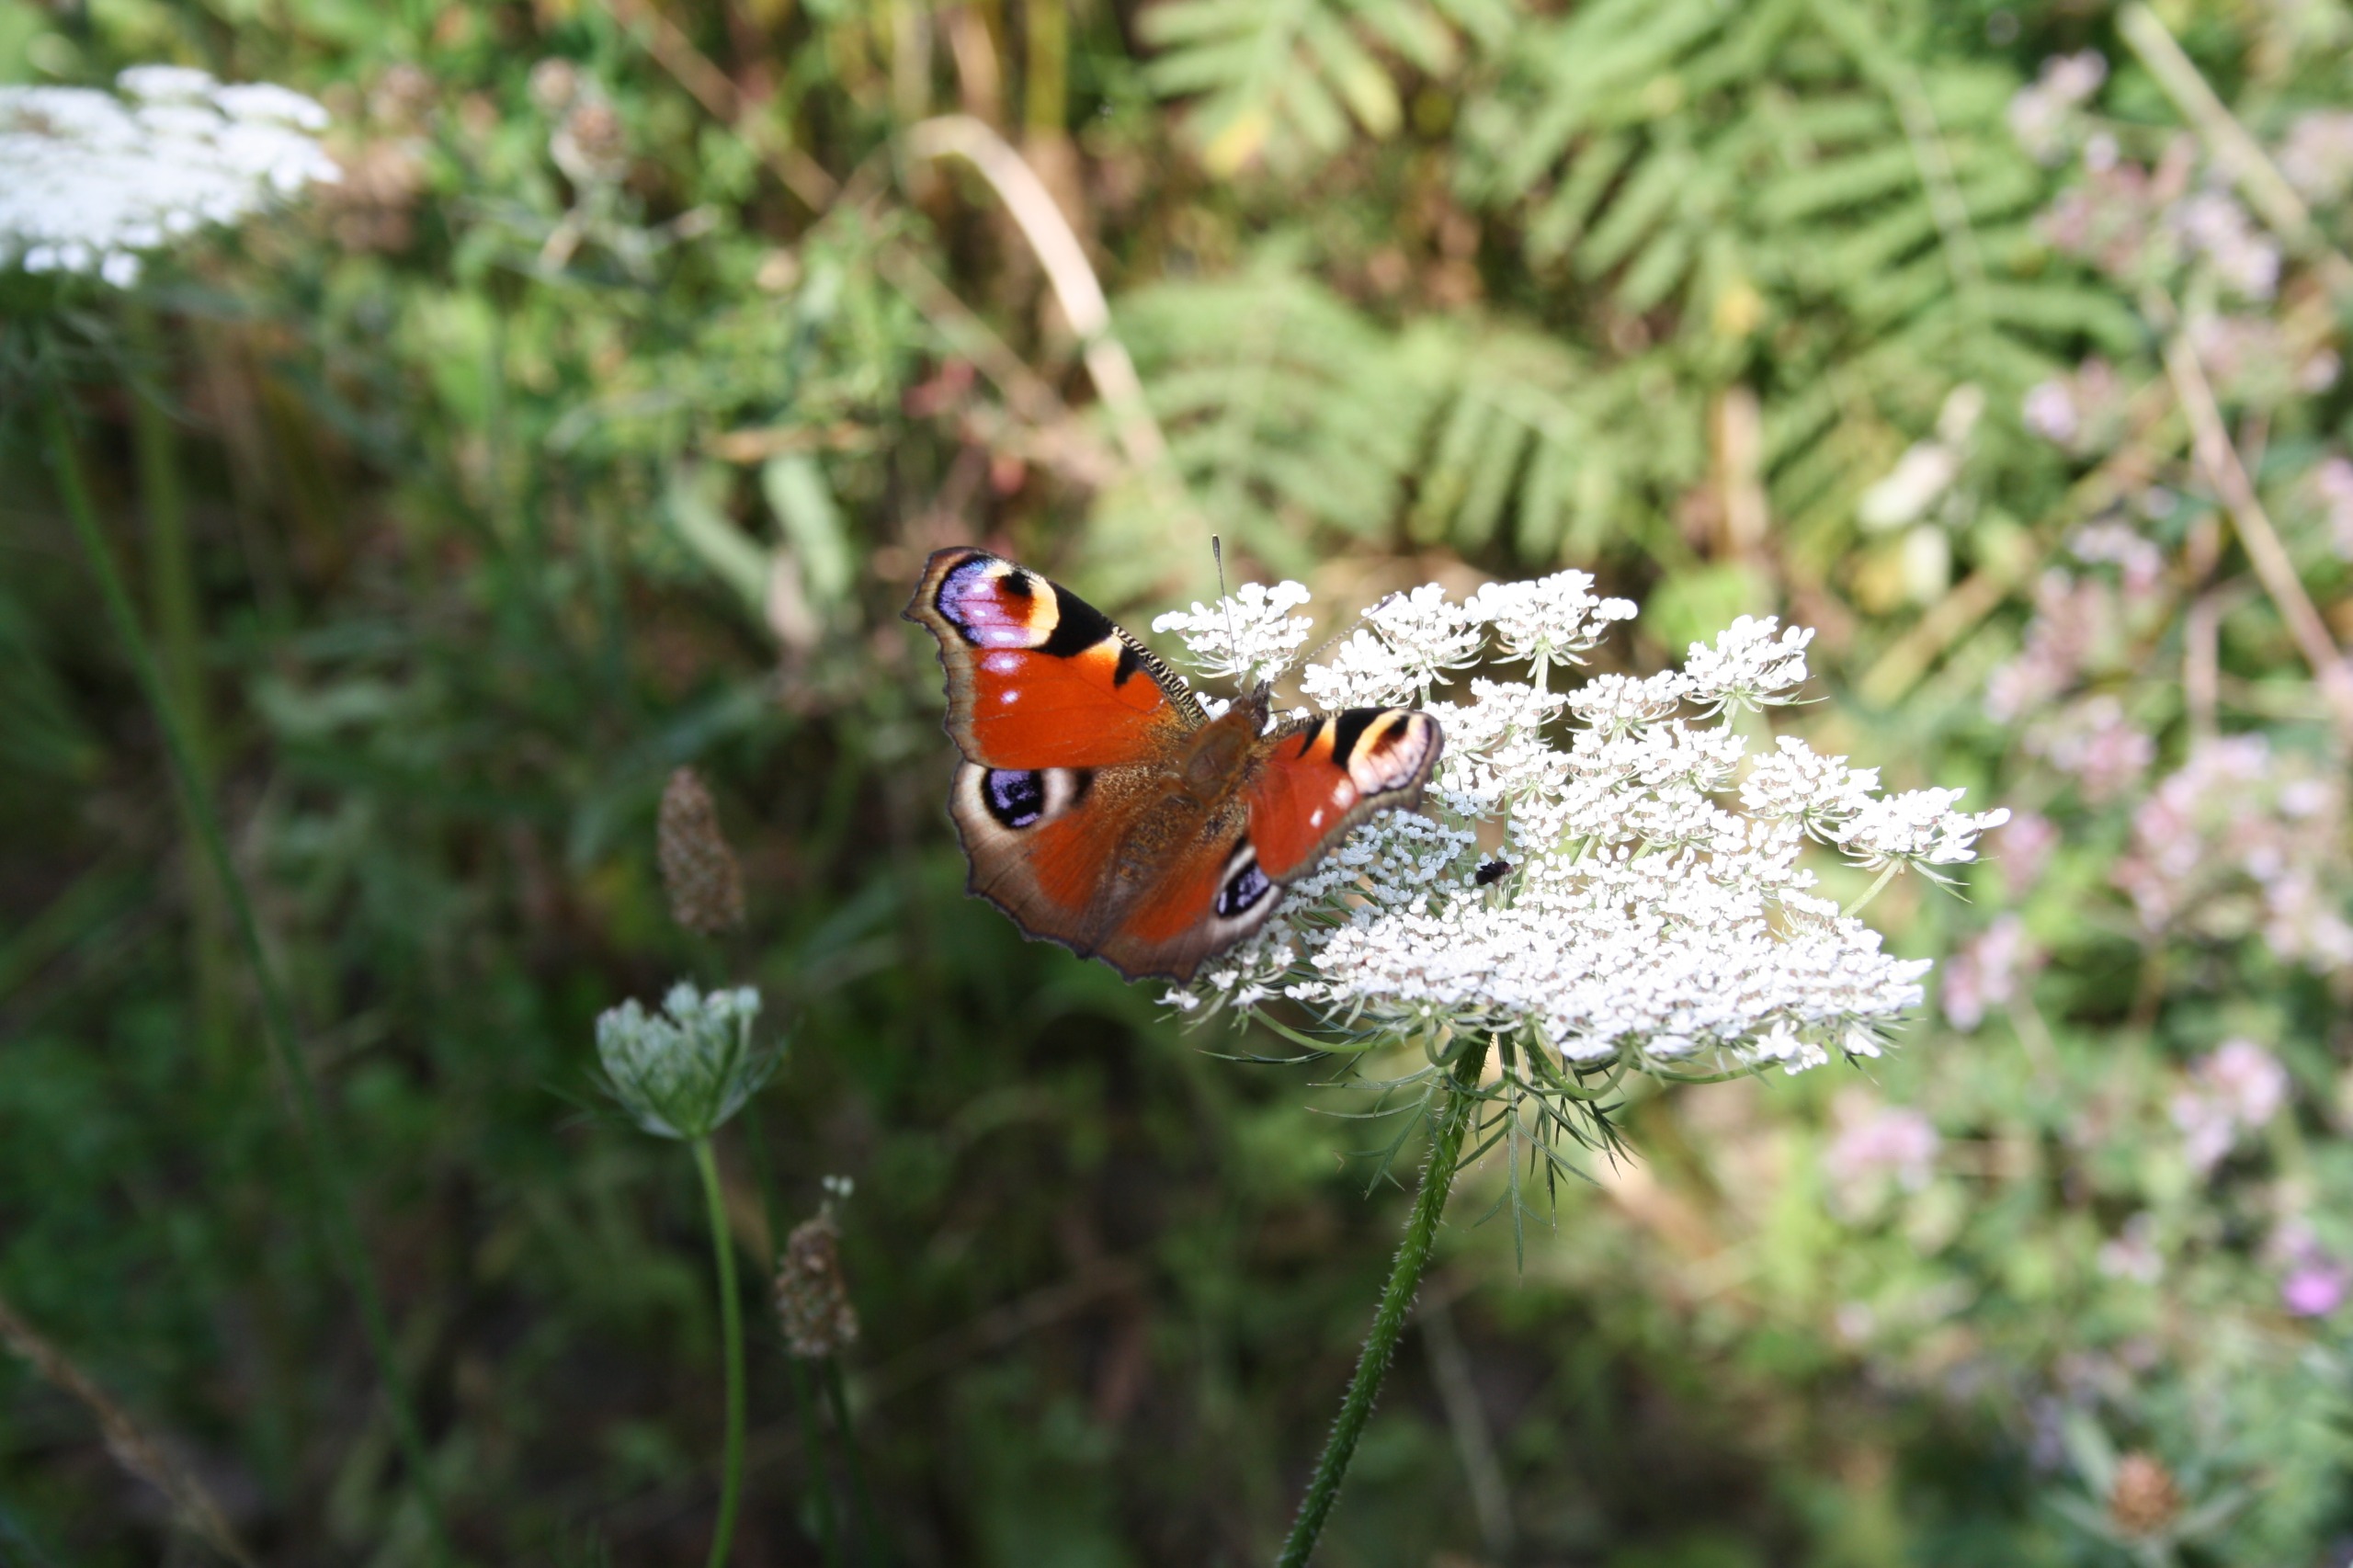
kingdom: Animalia
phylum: Arthropoda
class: Insecta
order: Lepidoptera
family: Nymphalidae
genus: Aglais
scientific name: Aglais io
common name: Dagpåfugleøje
